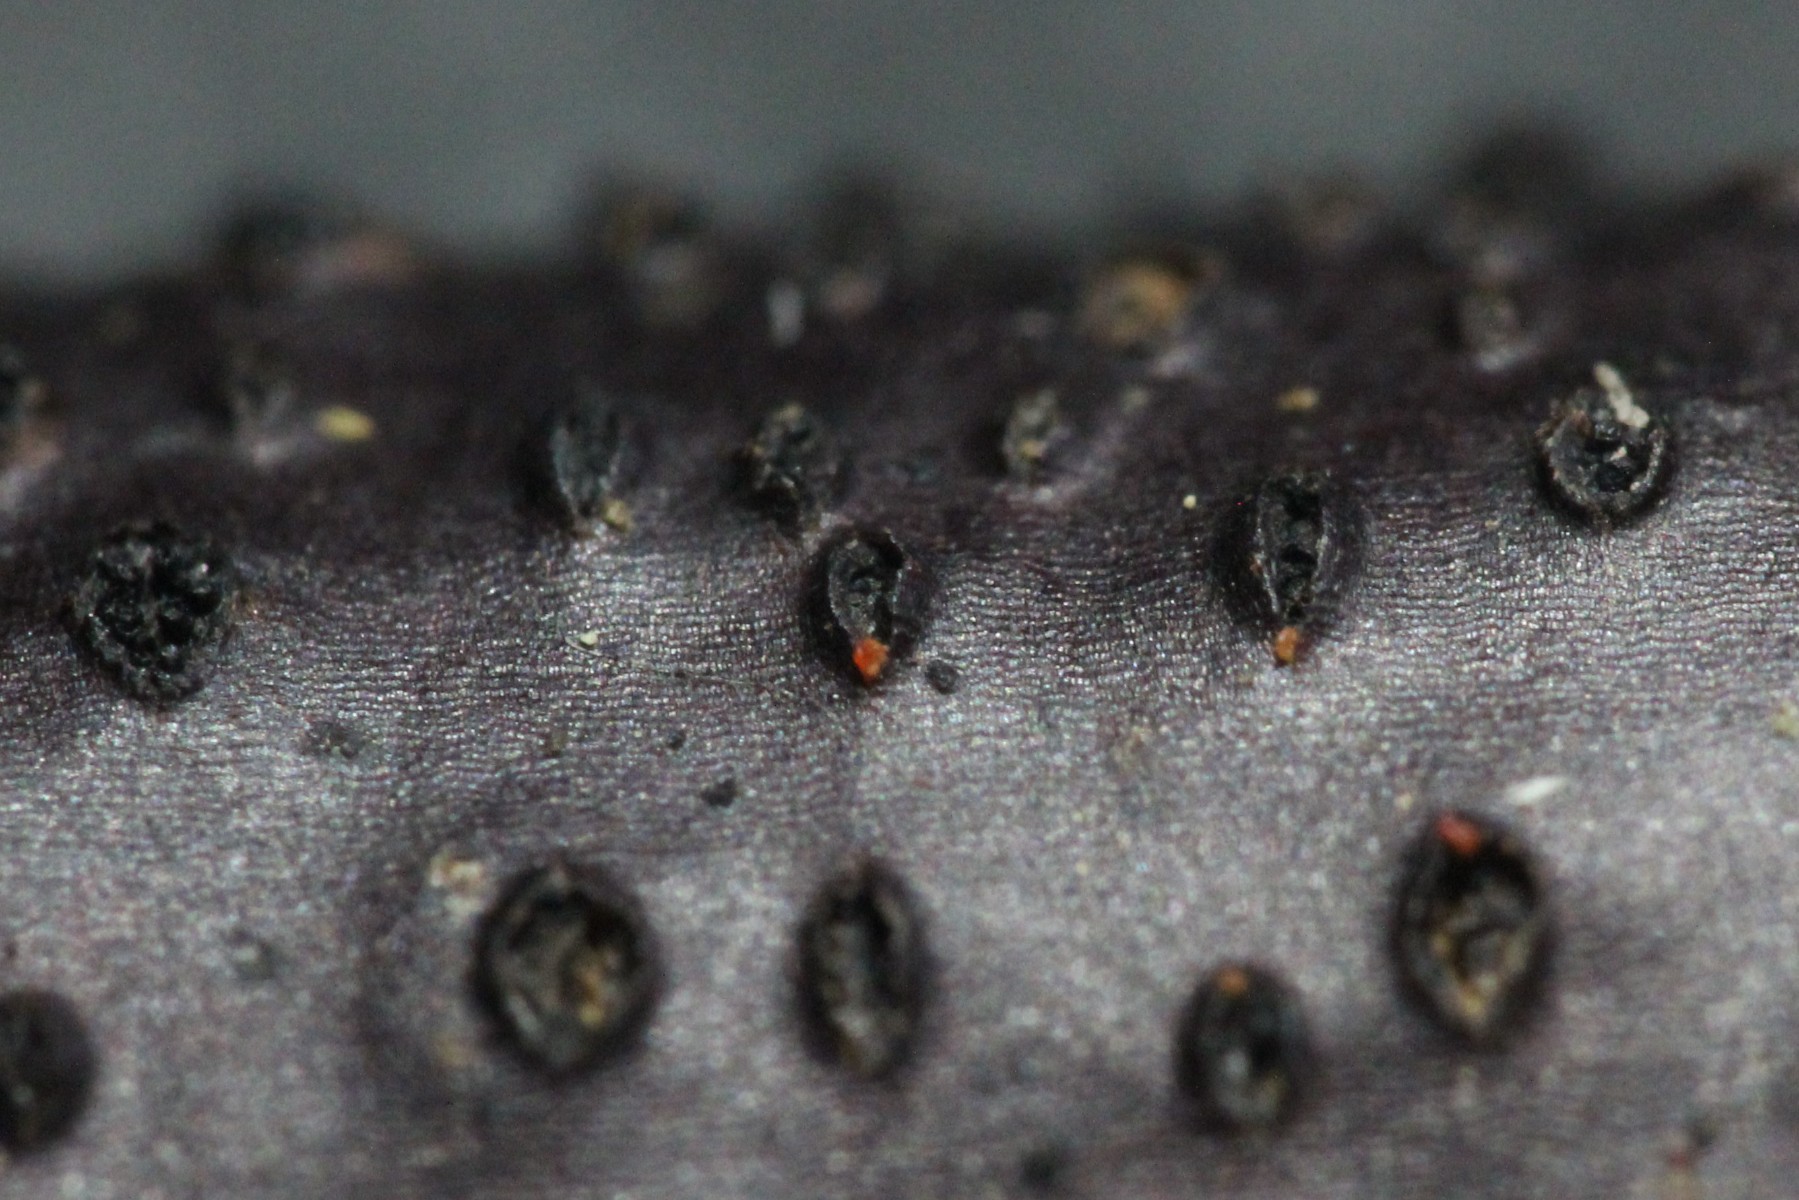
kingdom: Fungi
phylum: Ascomycota
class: Sordariomycetes
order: Hypocreales
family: Nectriaceae
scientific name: Nectriaceae
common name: cinnobersvampfamilien
